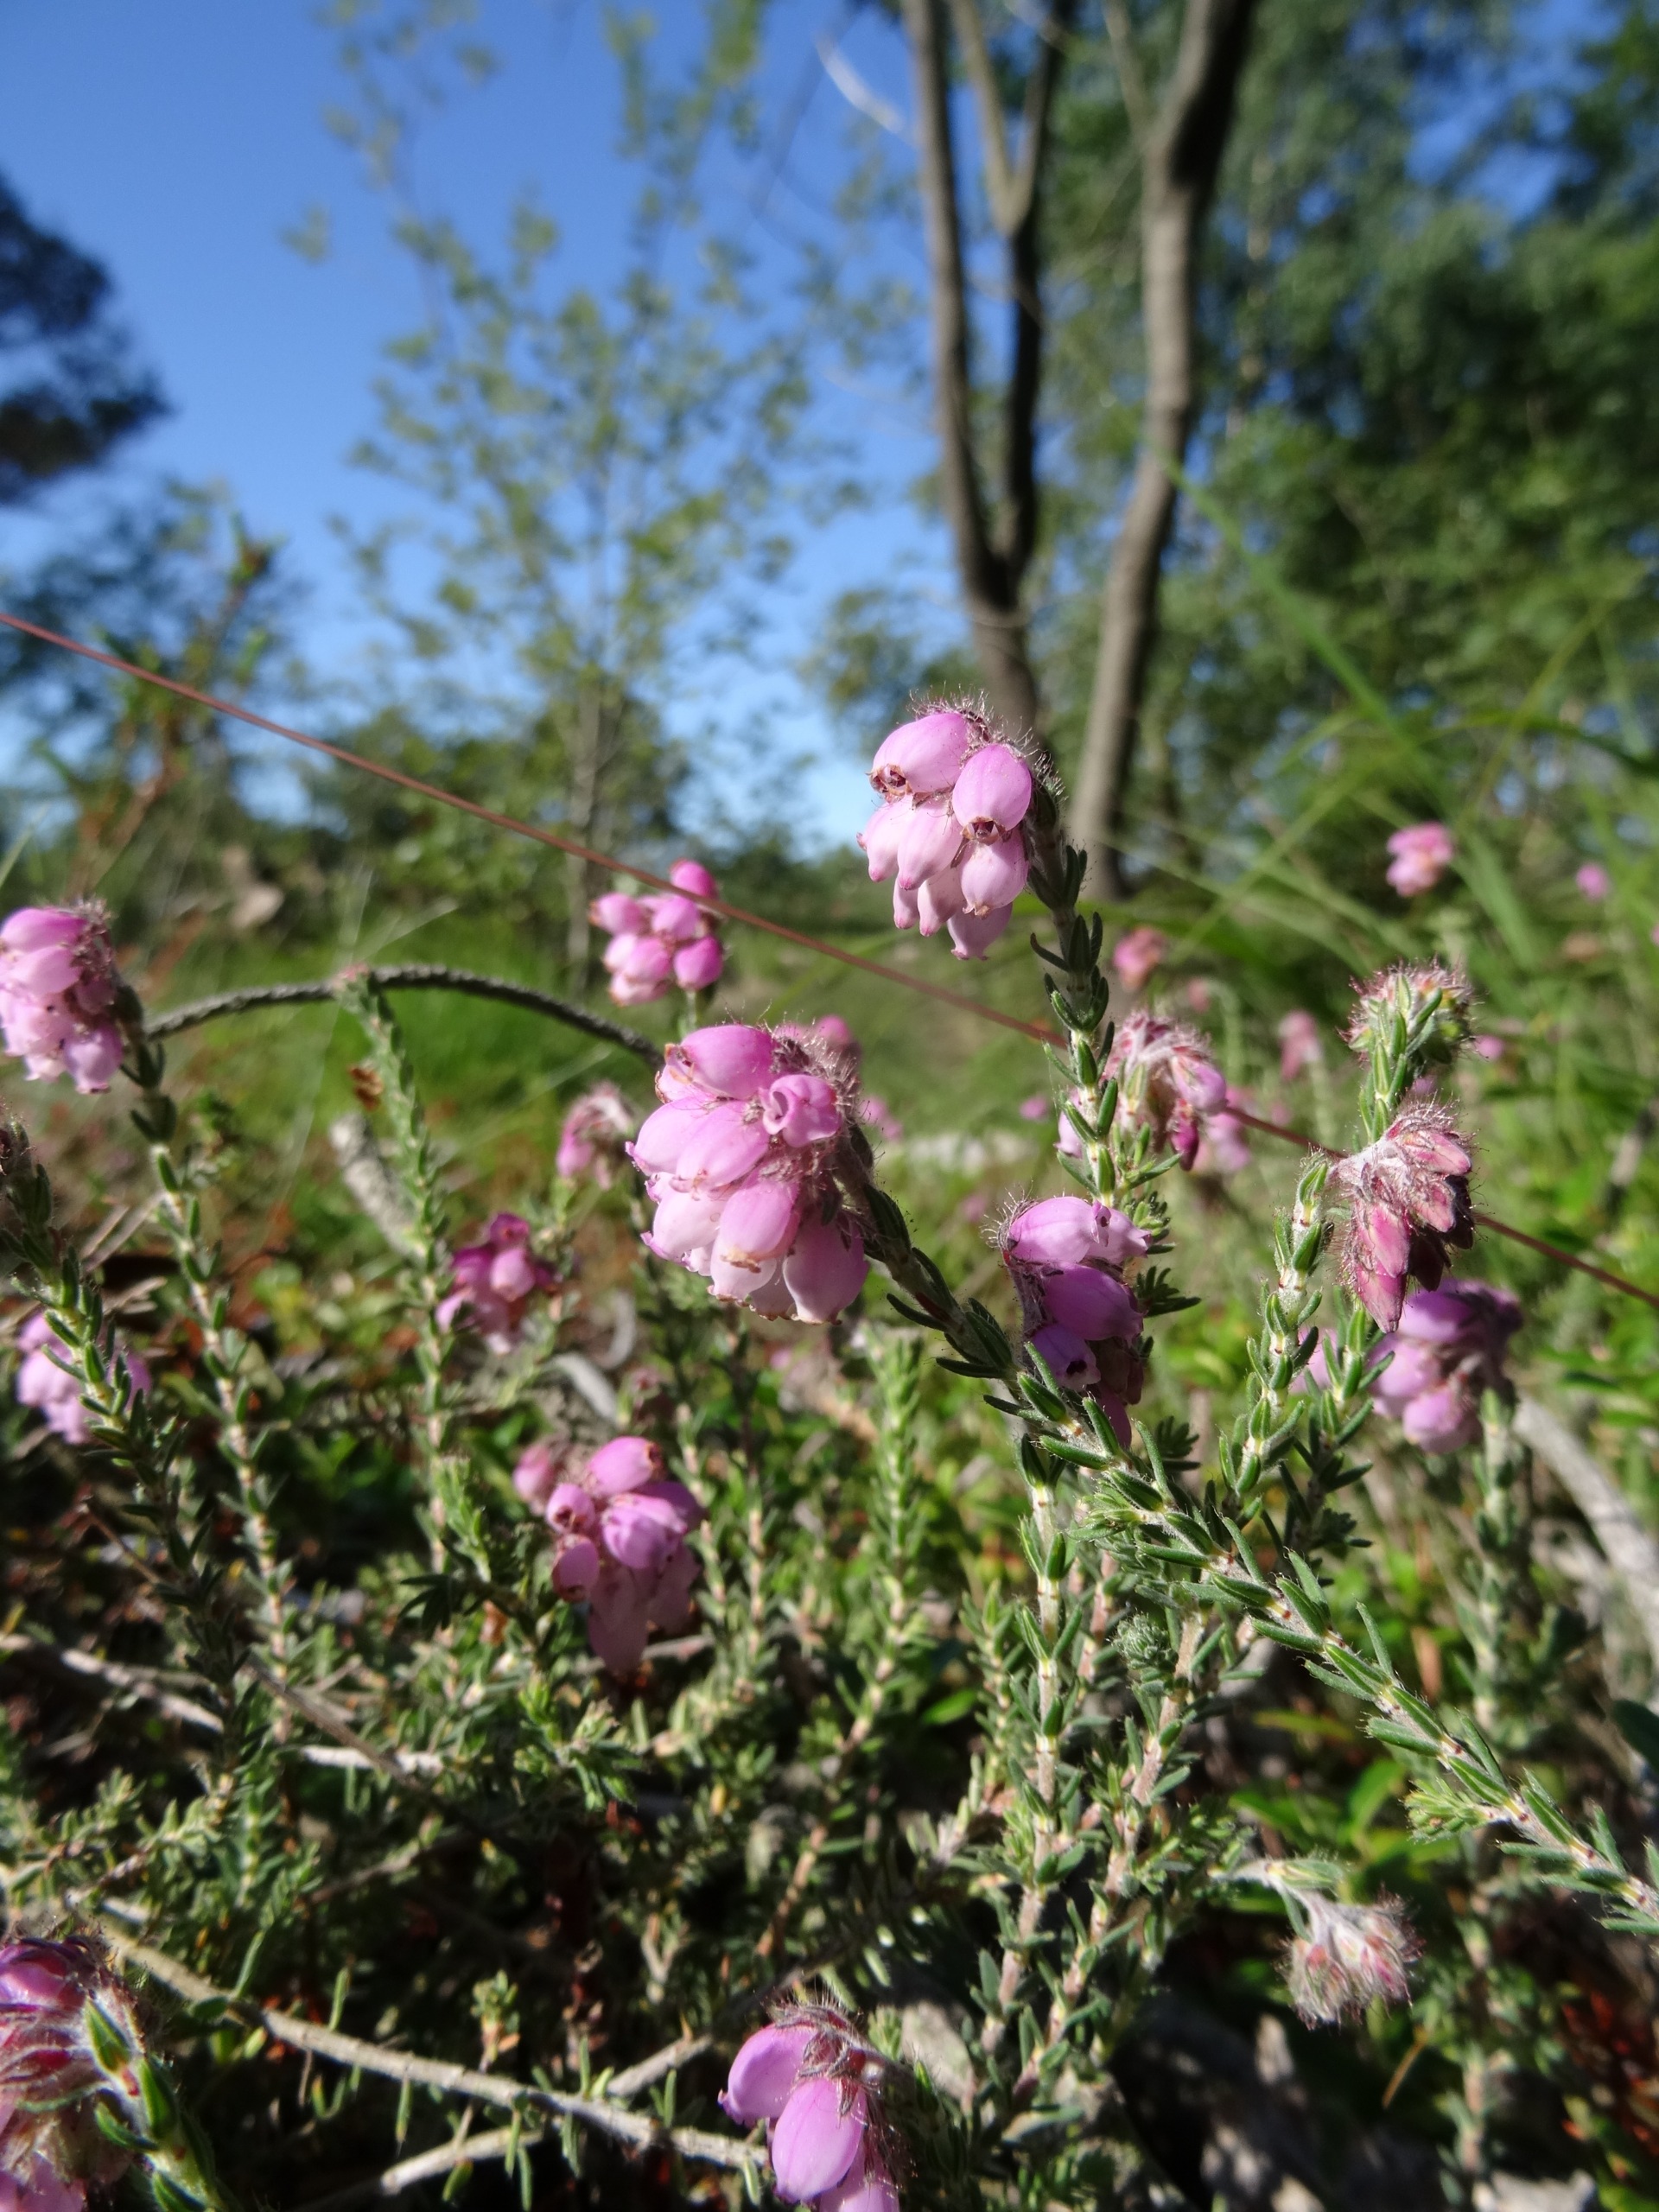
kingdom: Plantae
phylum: Tracheophyta
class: Magnoliopsida
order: Ericales
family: Ericaceae
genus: Erica
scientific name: Erica tetralix
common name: Klokkelyng
